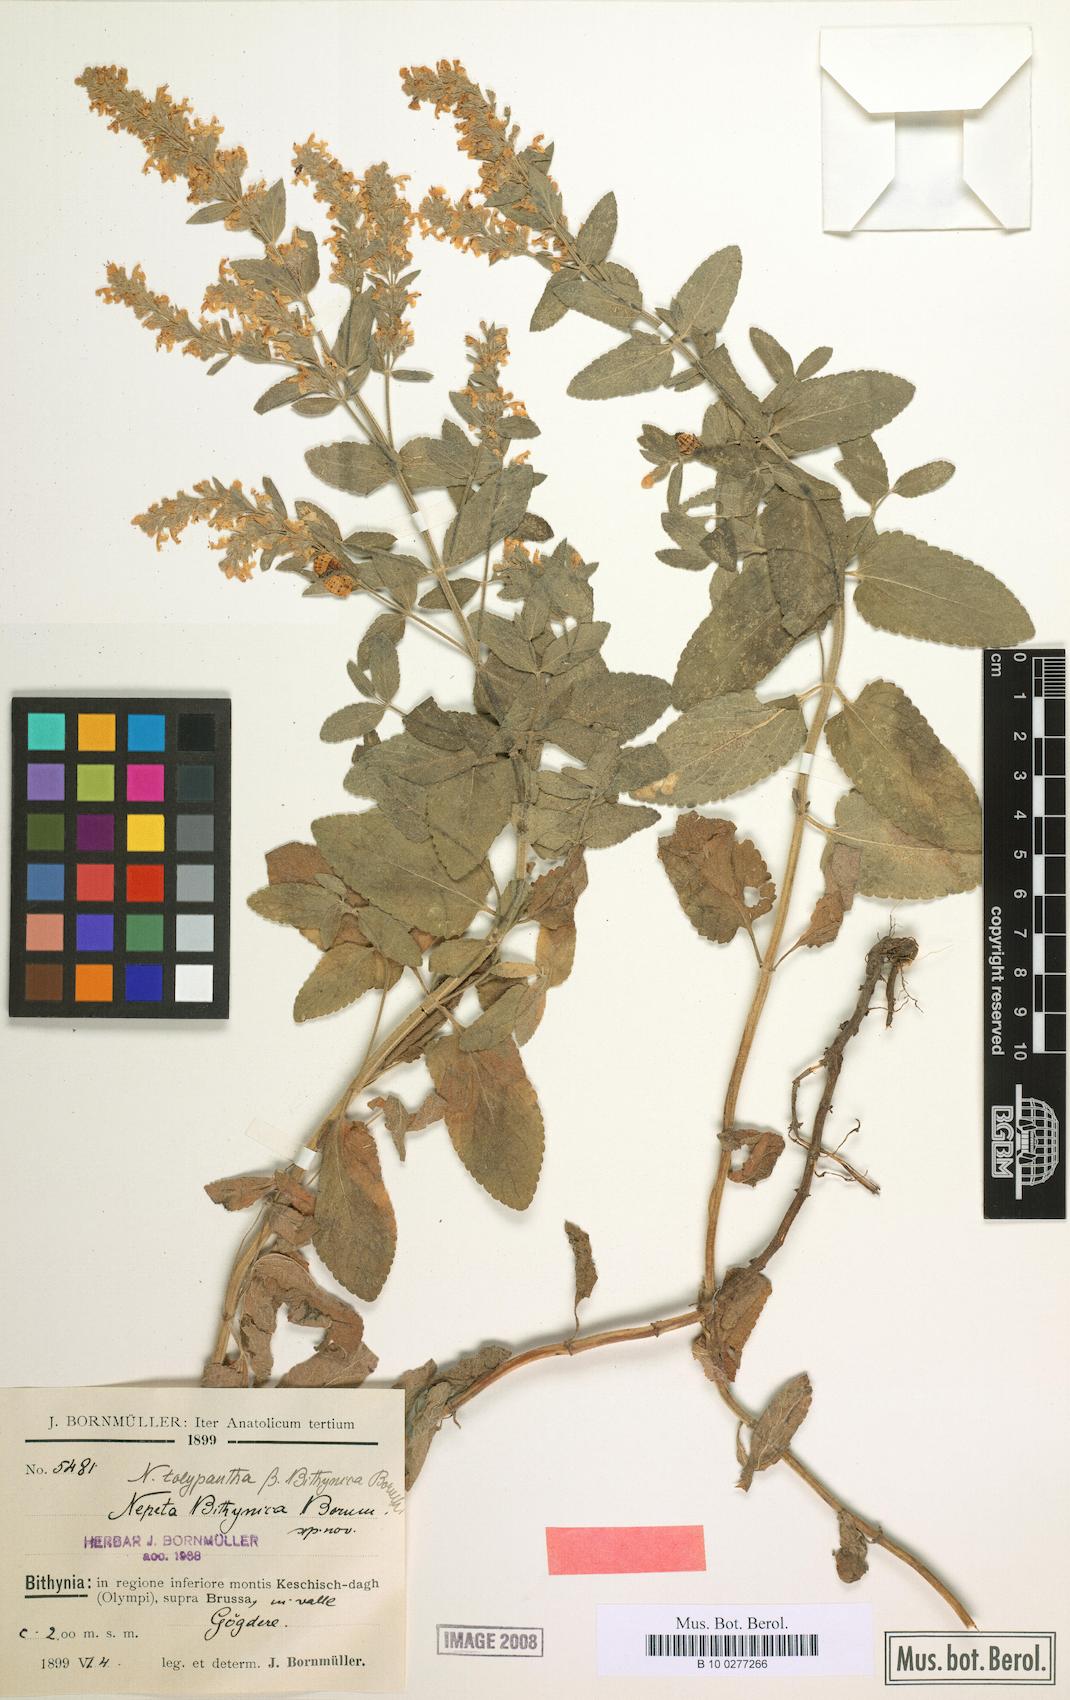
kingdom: Plantae
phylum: Tracheophyta
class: Magnoliopsida
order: Lamiales
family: Lamiaceae
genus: Nepeta
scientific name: Nepeta nuda
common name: Hairless catmint
